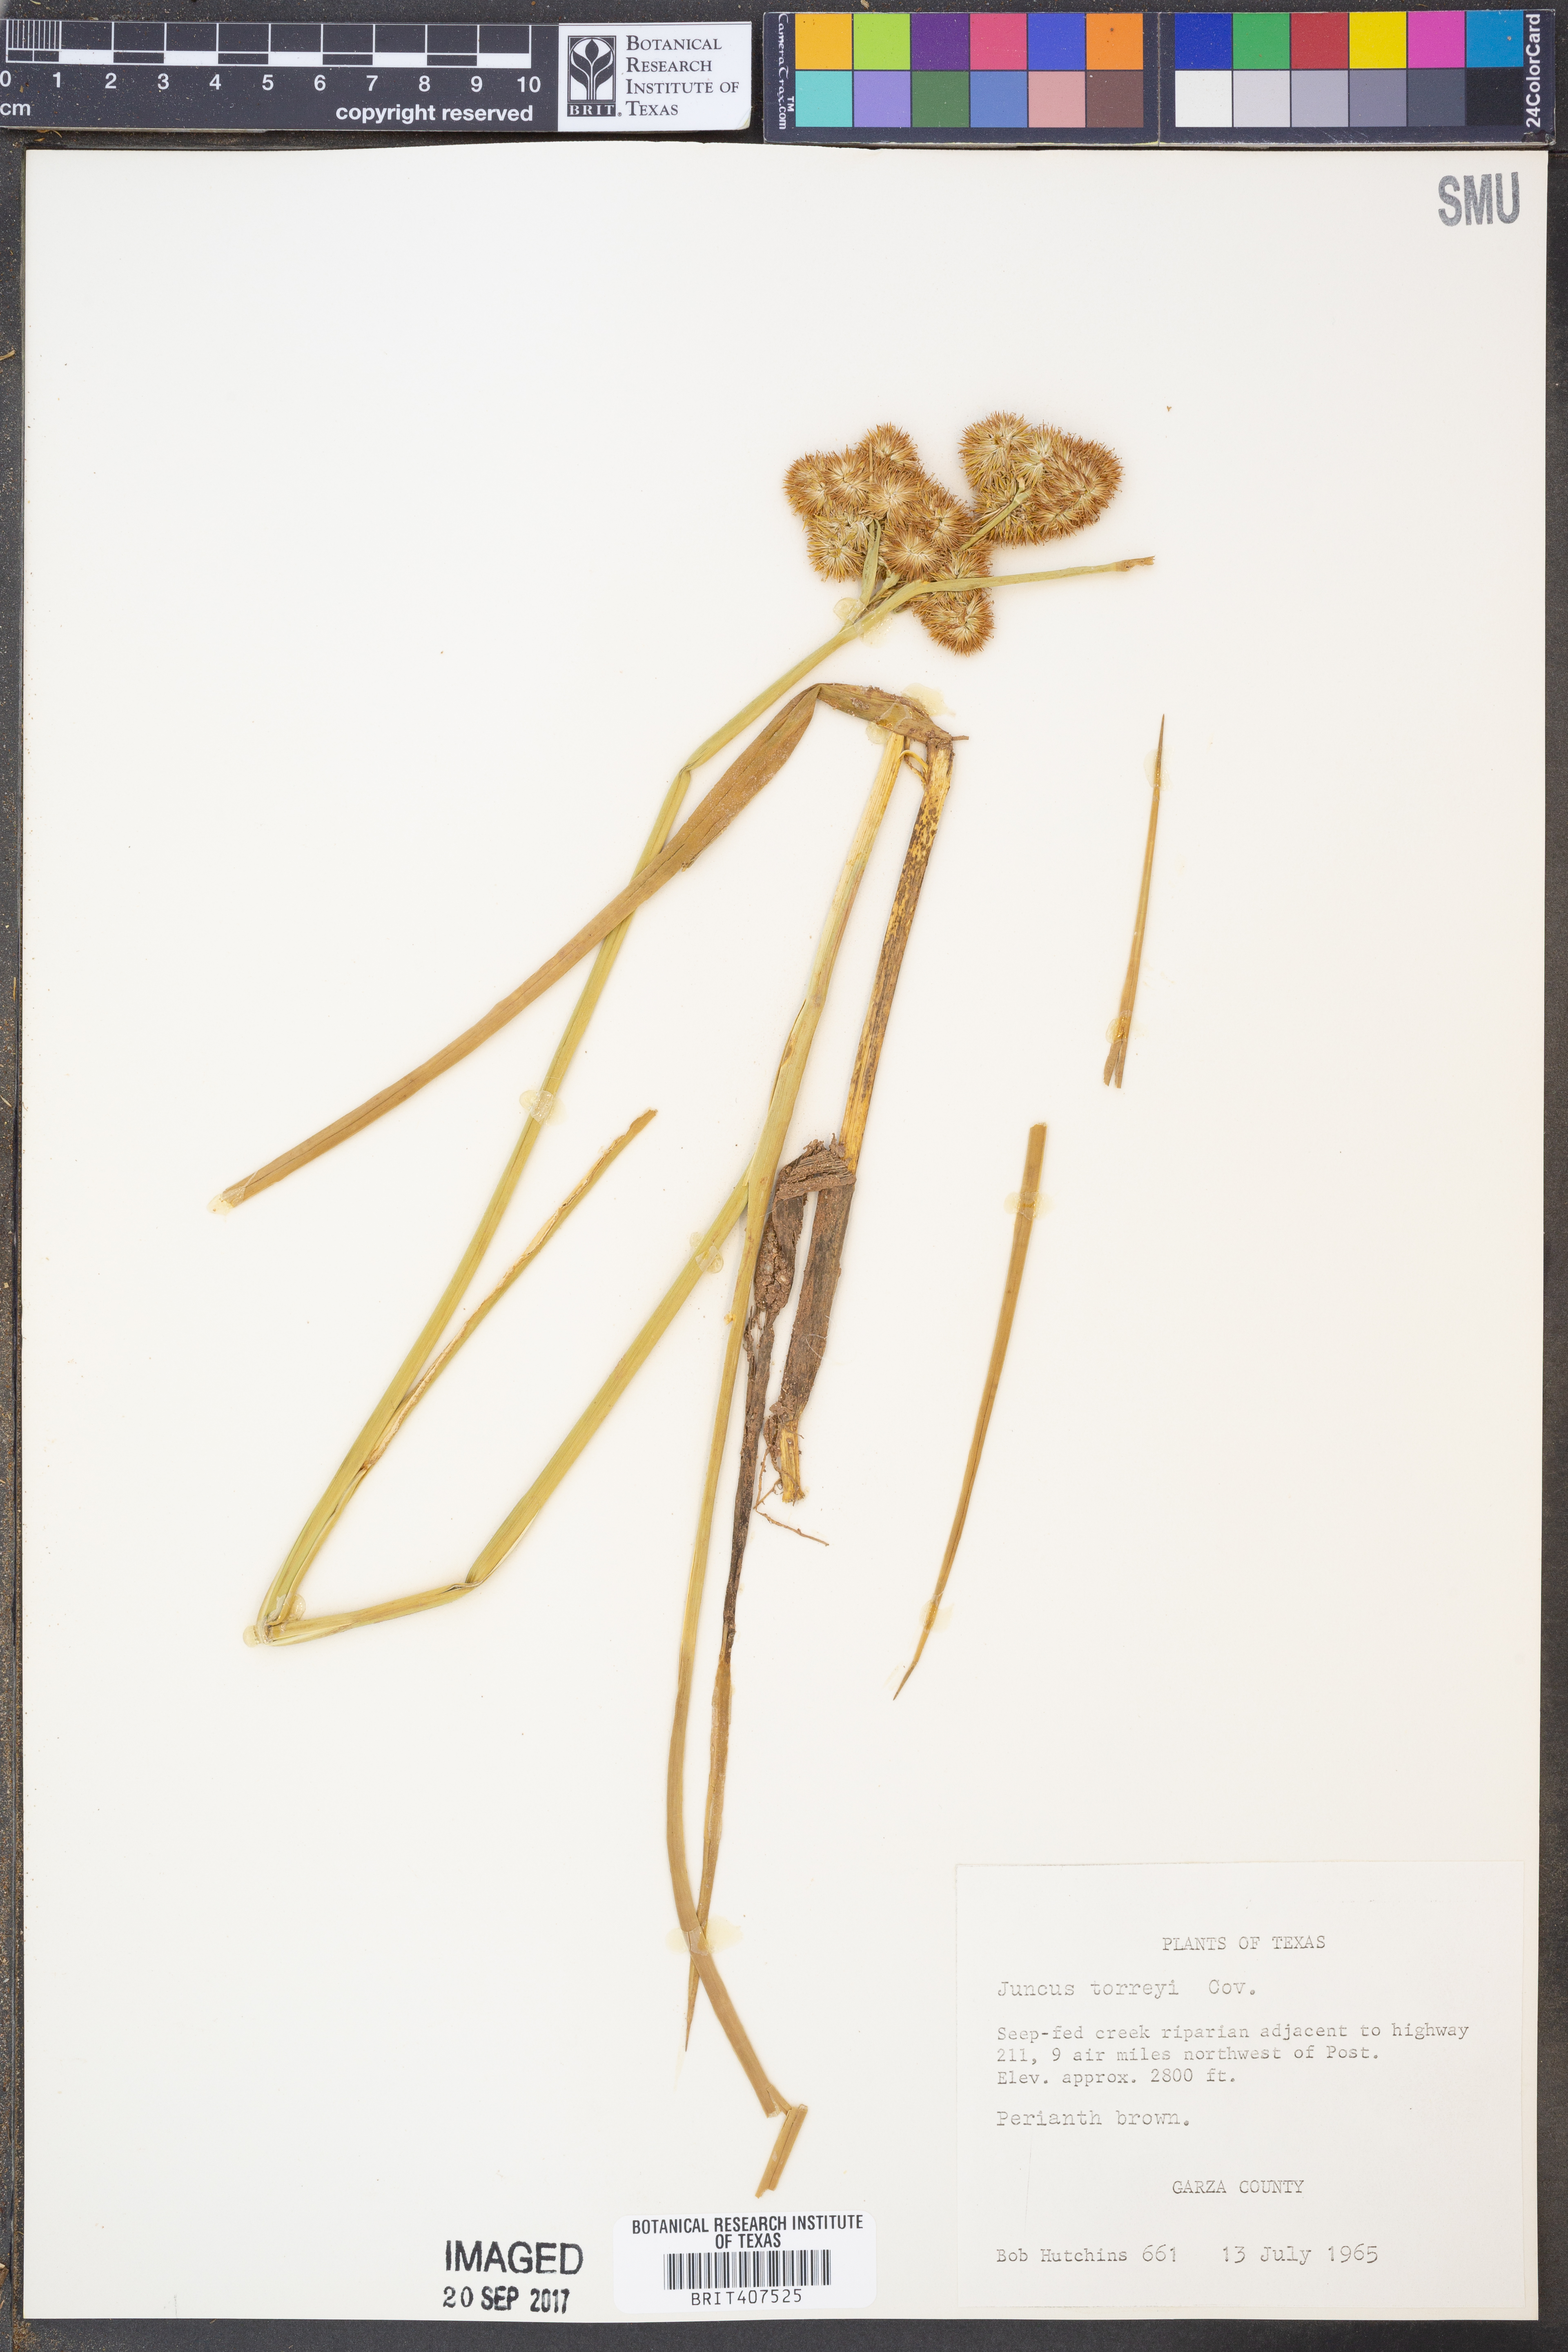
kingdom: Plantae
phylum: Tracheophyta
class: Liliopsida
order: Poales
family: Juncaceae
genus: Juncus
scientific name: Juncus torreyi
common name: Torrey's rush
